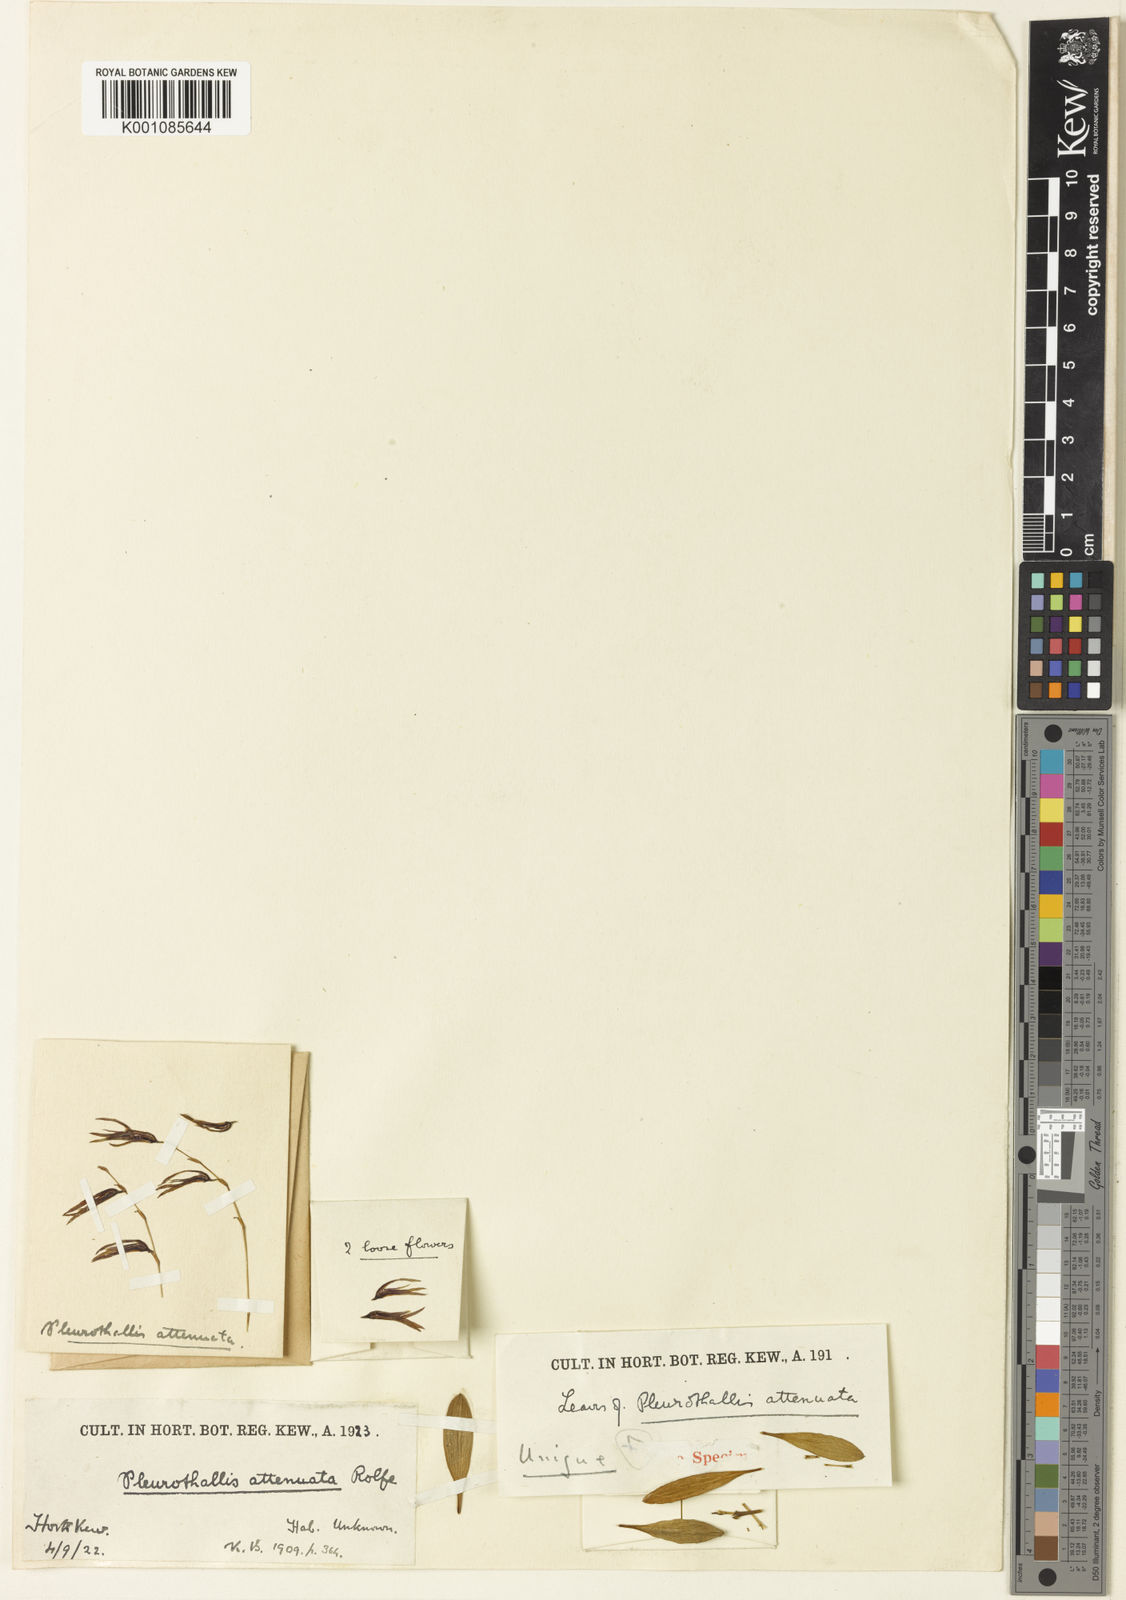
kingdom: Plantae
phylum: Tracheophyta
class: Liliopsida
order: Asparagales
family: Orchidaceae
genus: Anathallis
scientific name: Anathallis attenuata
